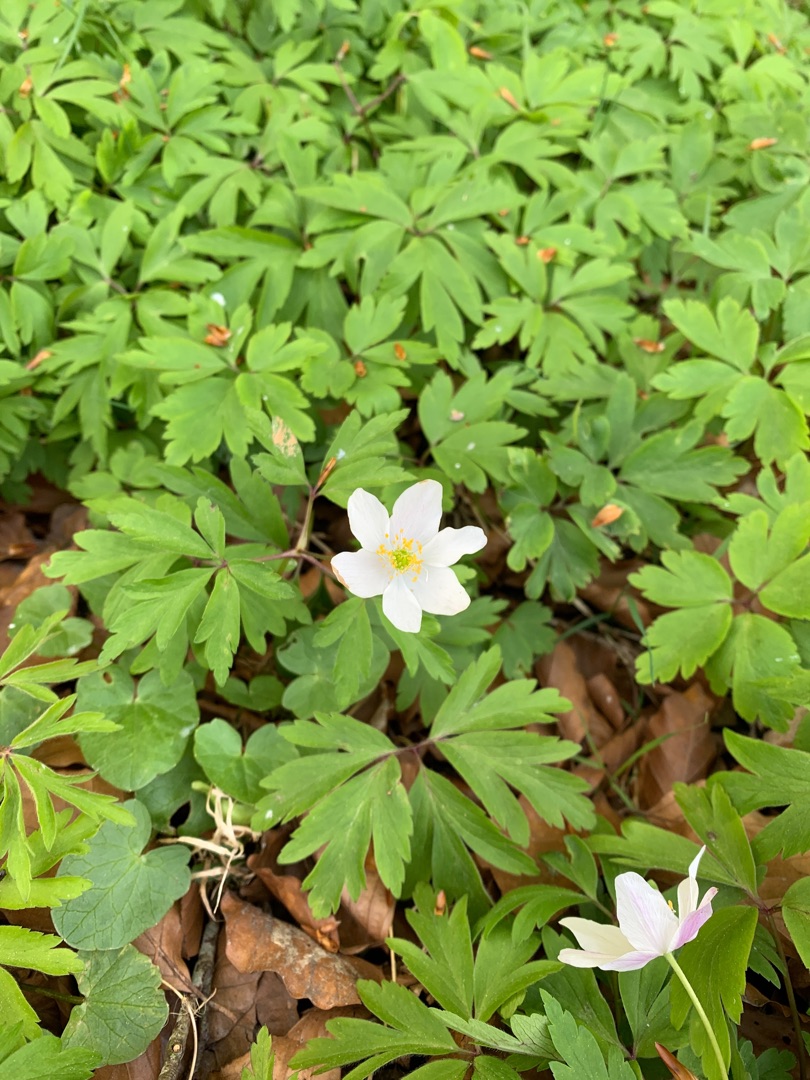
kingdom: Plantae
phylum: Tracheophyta
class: Magnoliopsida
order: Ranunculales
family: Ranunculaceae
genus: Anemone
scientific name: Anemone nemorosa
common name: Hvid anemone
